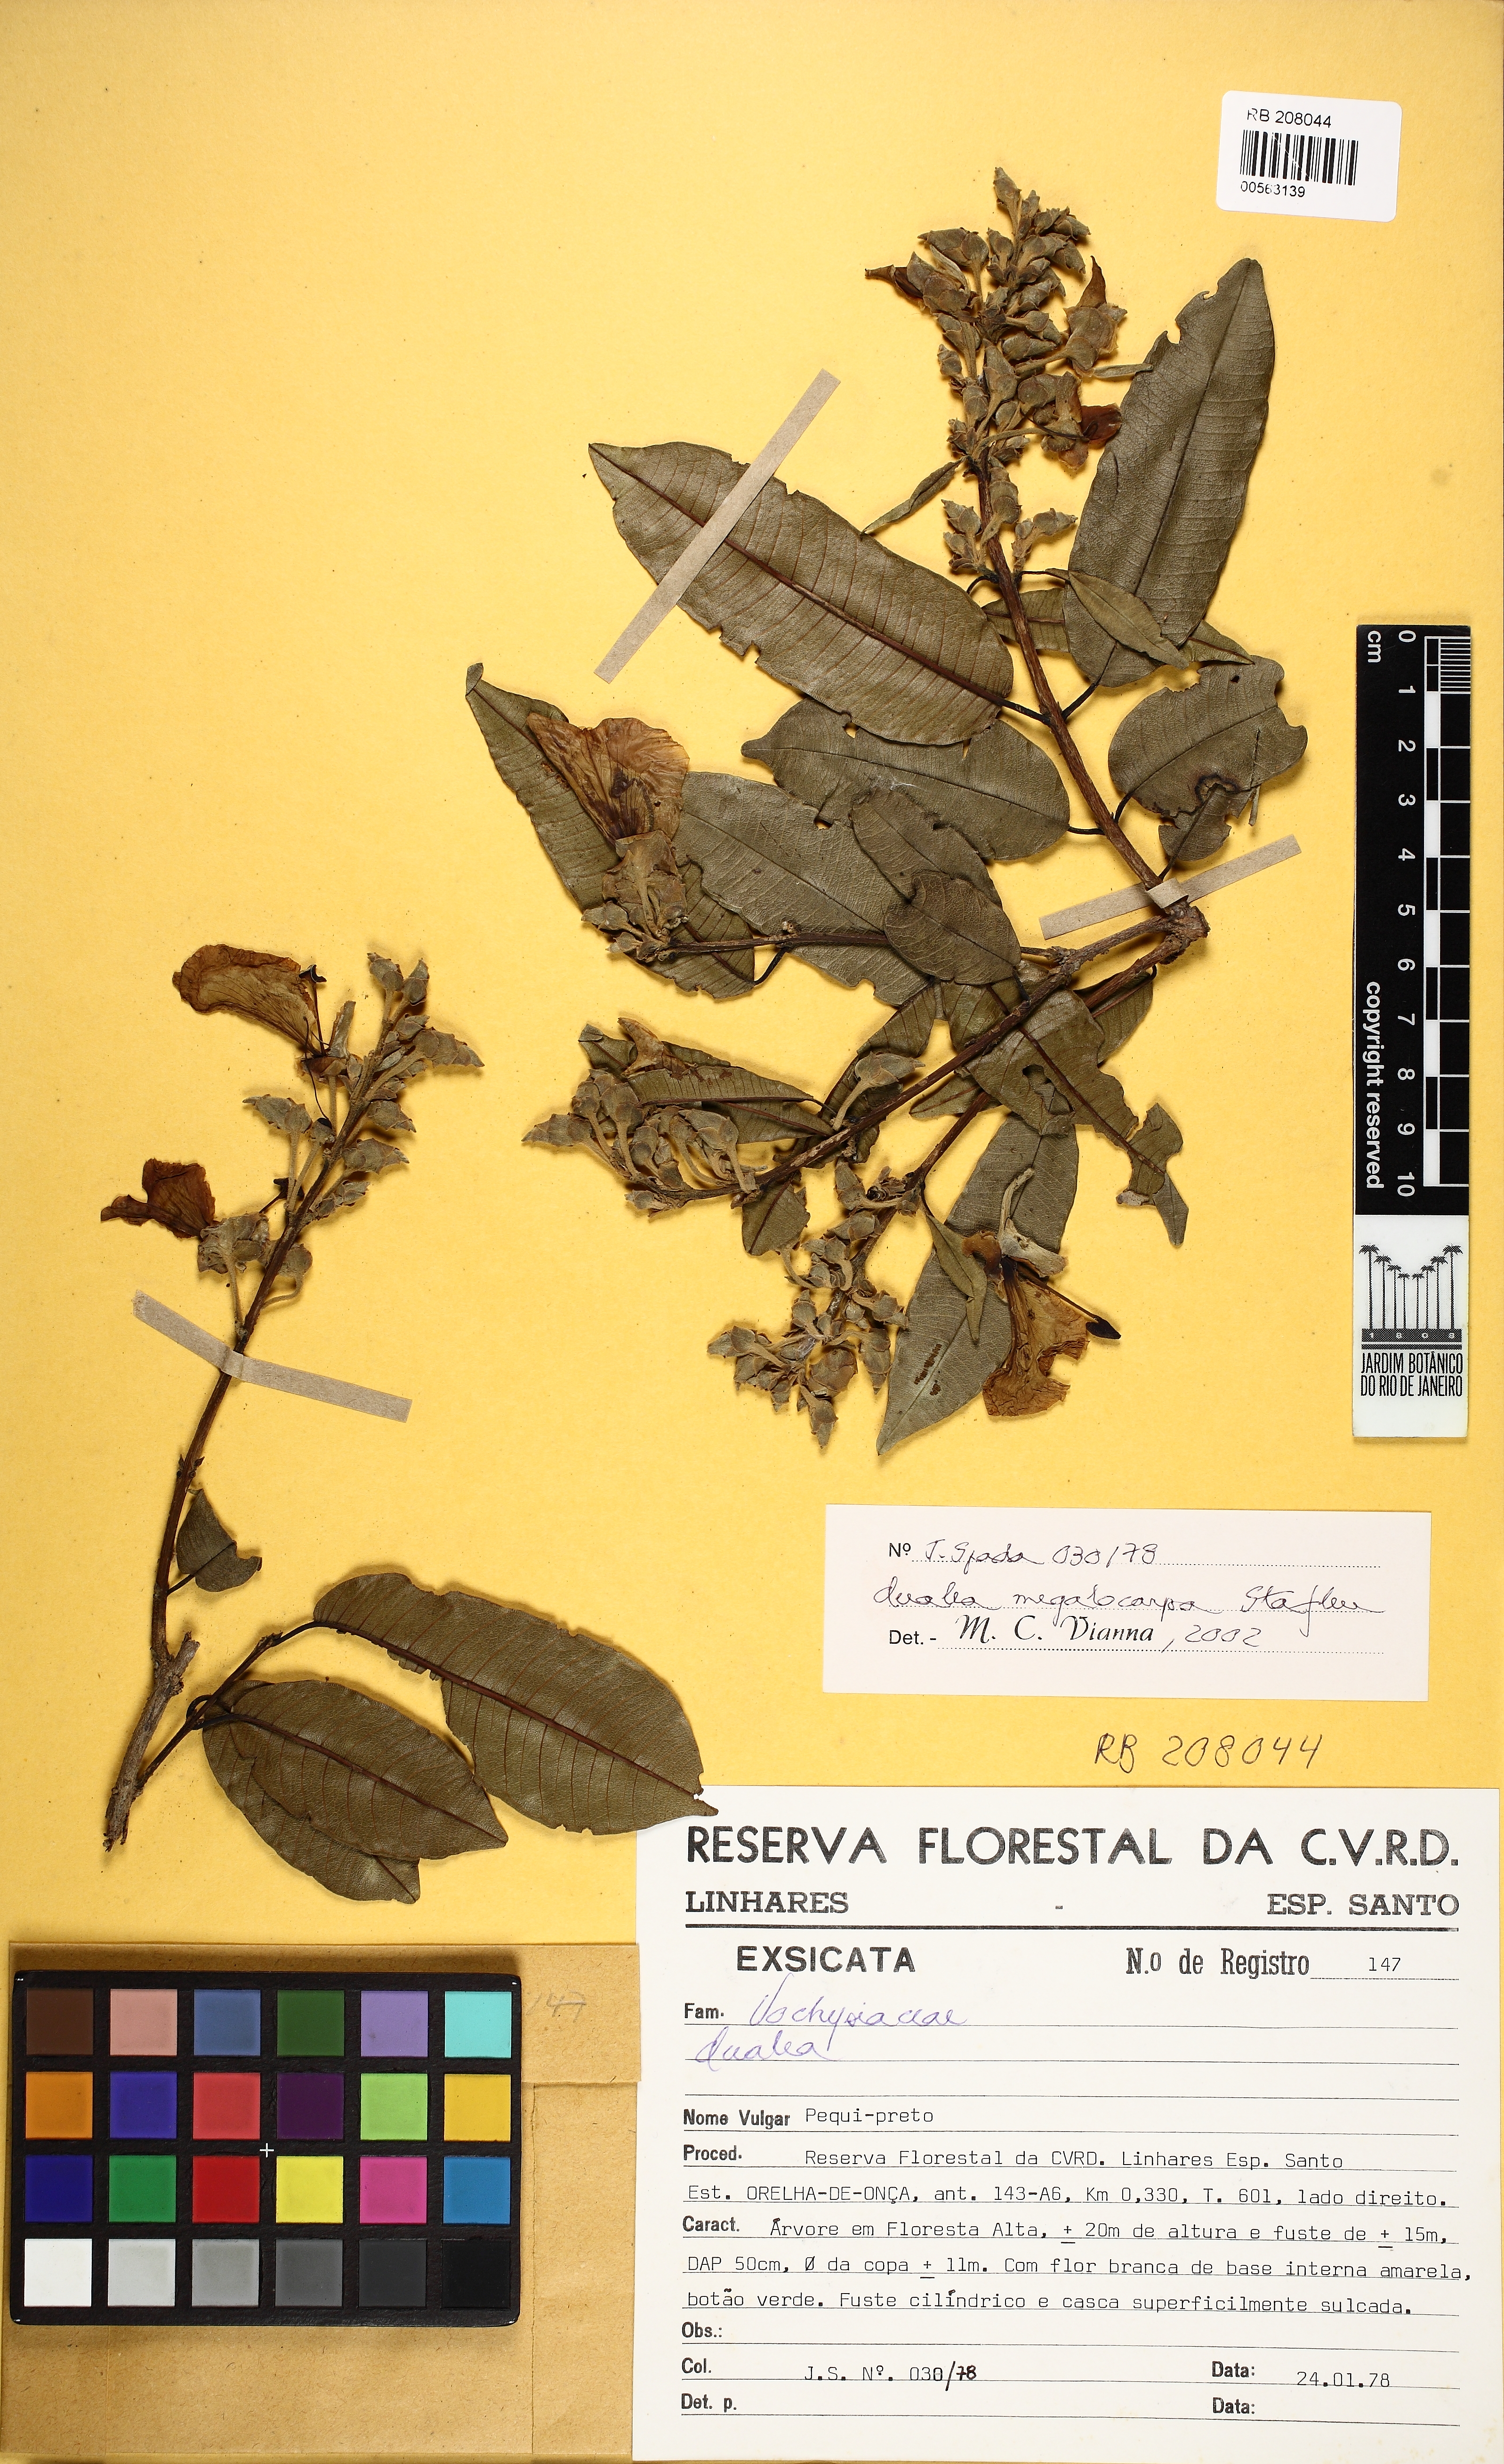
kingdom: Plantae
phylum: Tracheophyta
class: Magnoliopsida
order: Myrtales
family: Vochysiaceae
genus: Qualea
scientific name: Qualea megalocarpa
